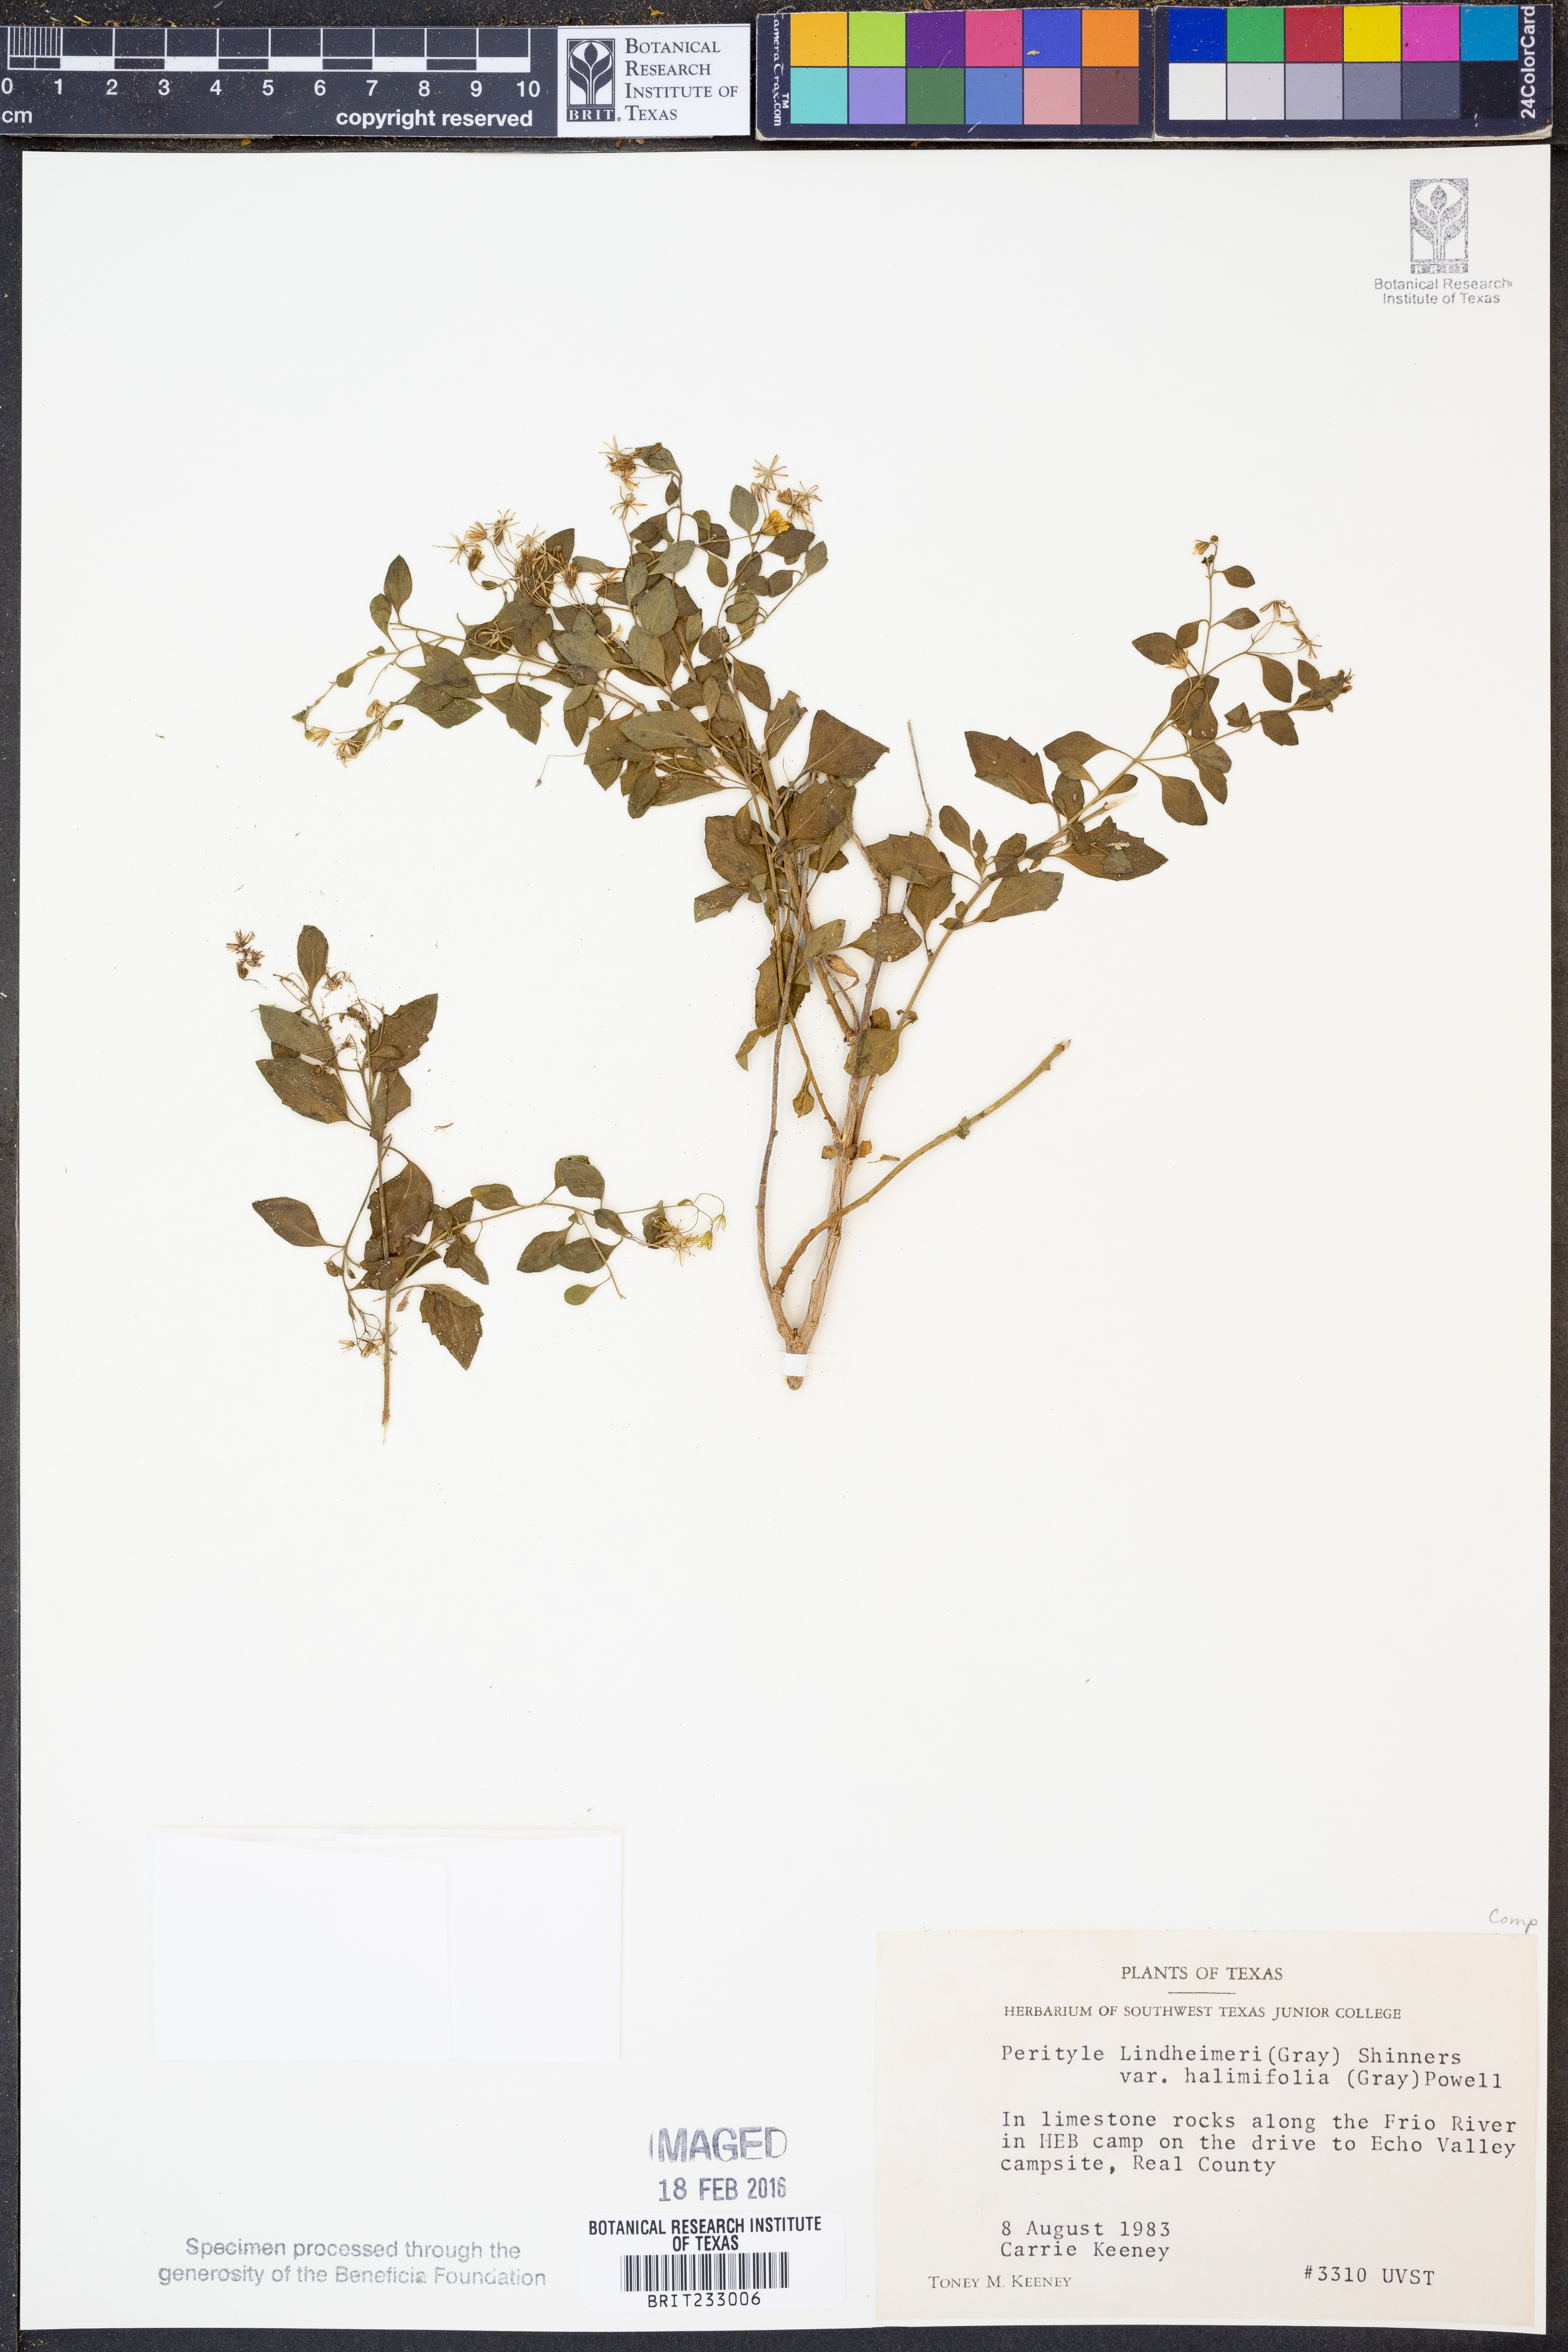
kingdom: Plantae
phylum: Tracheophyta
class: Magnoliopsida
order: Asterales
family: Asteraceae
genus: Laphamia
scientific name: Laphamia lindheimeri
